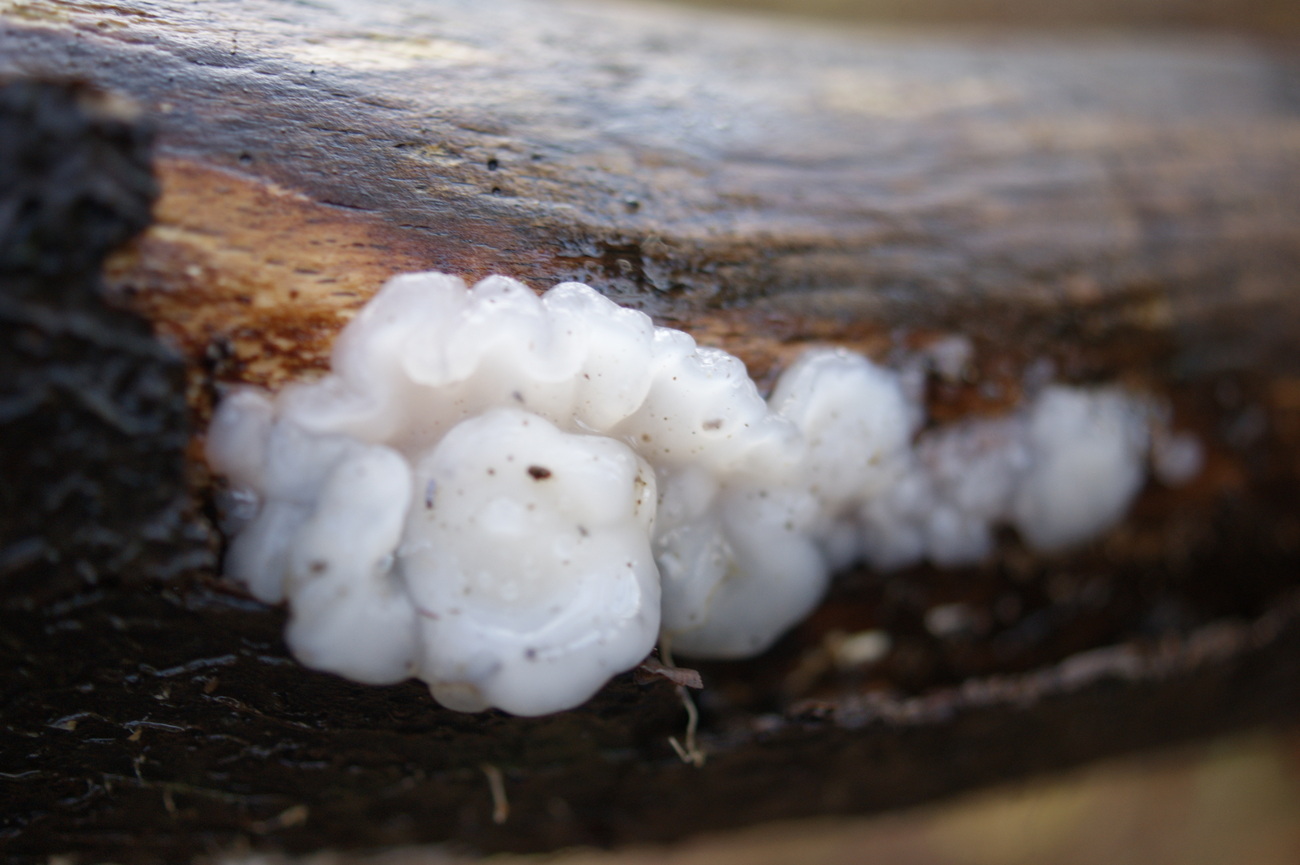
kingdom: Fungi
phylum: Basidiomycota
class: Agaricomycetes
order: Auriculariales
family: Auriculariaceae
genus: Exidia
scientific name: Exidia thuretiana
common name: hvidlig bævretop
